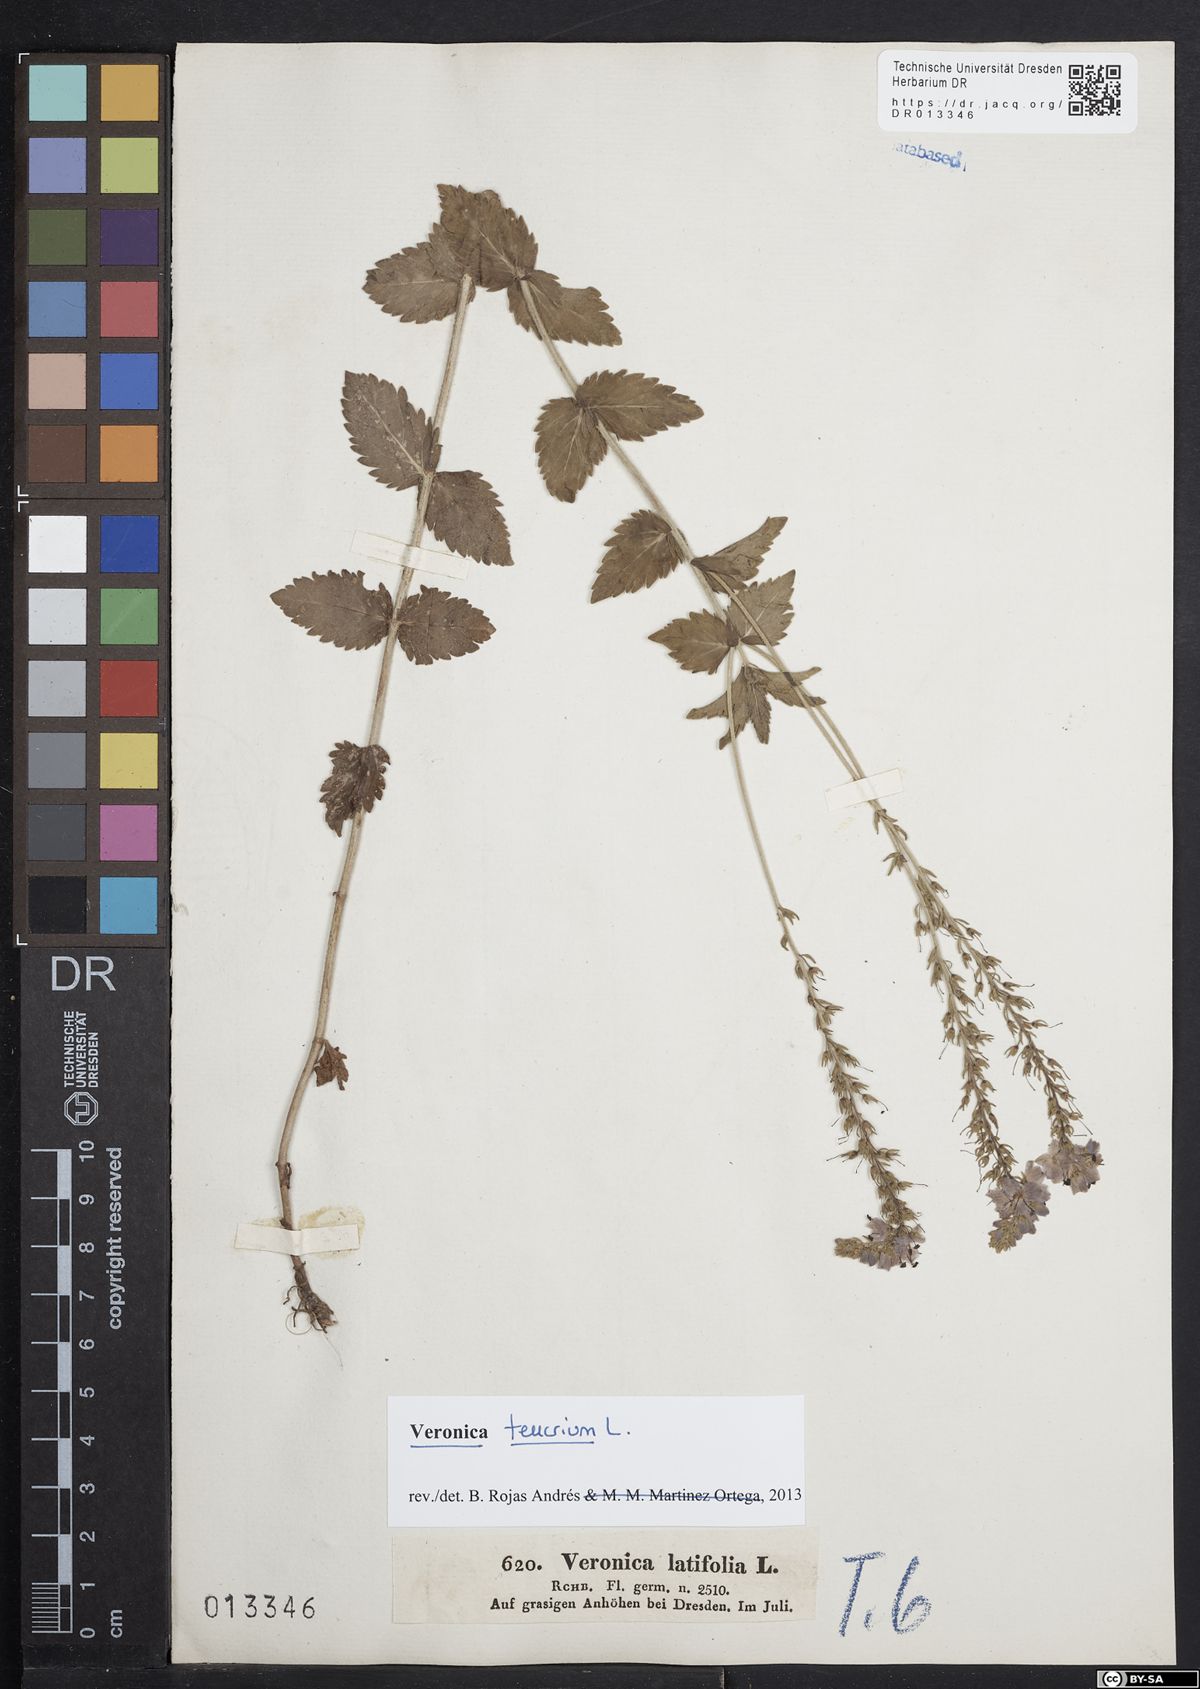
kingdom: Plantae
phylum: Tracheophyta
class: Magnoliopsida
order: Lamiales
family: Plantaginaceae
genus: Veronica
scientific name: Veronica teucrium
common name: Large speedwell
